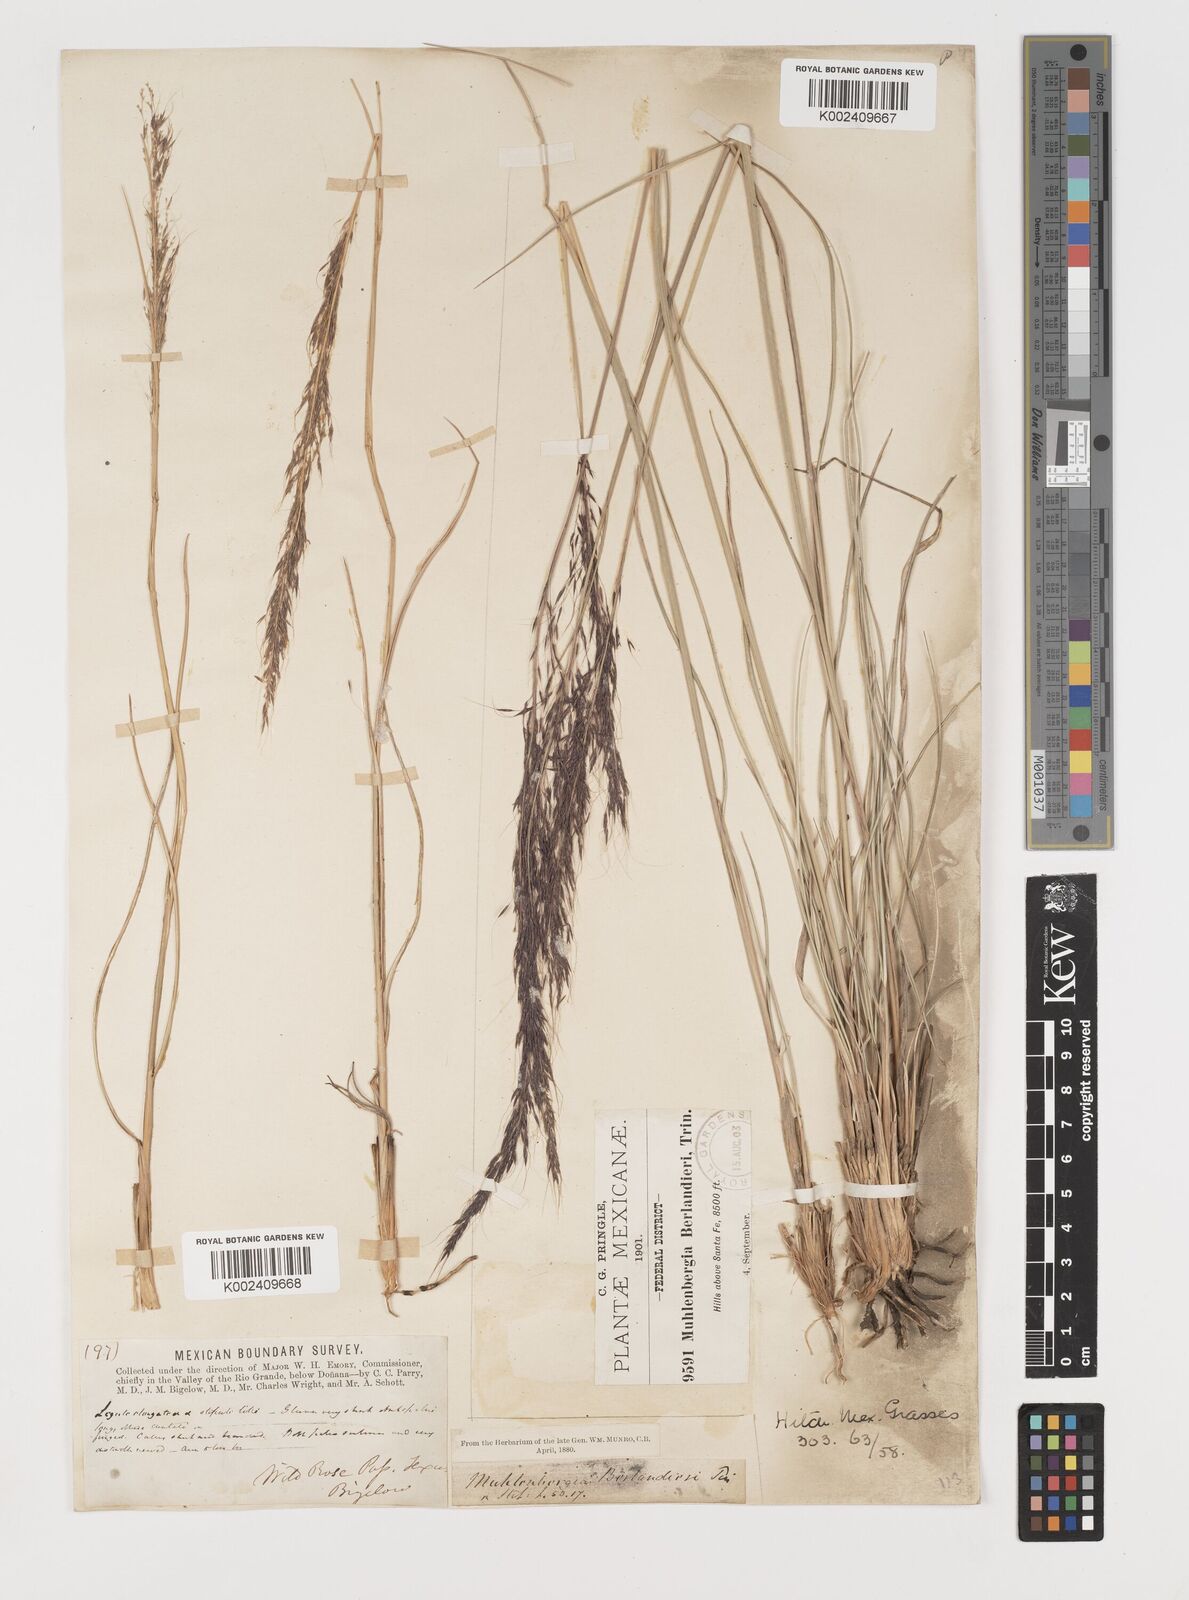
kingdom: Plantae
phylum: Tracheophyta
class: Liliopsida
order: Poales
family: Poaceae
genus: Muhlenbergia
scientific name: Muhlenbergia rigida
